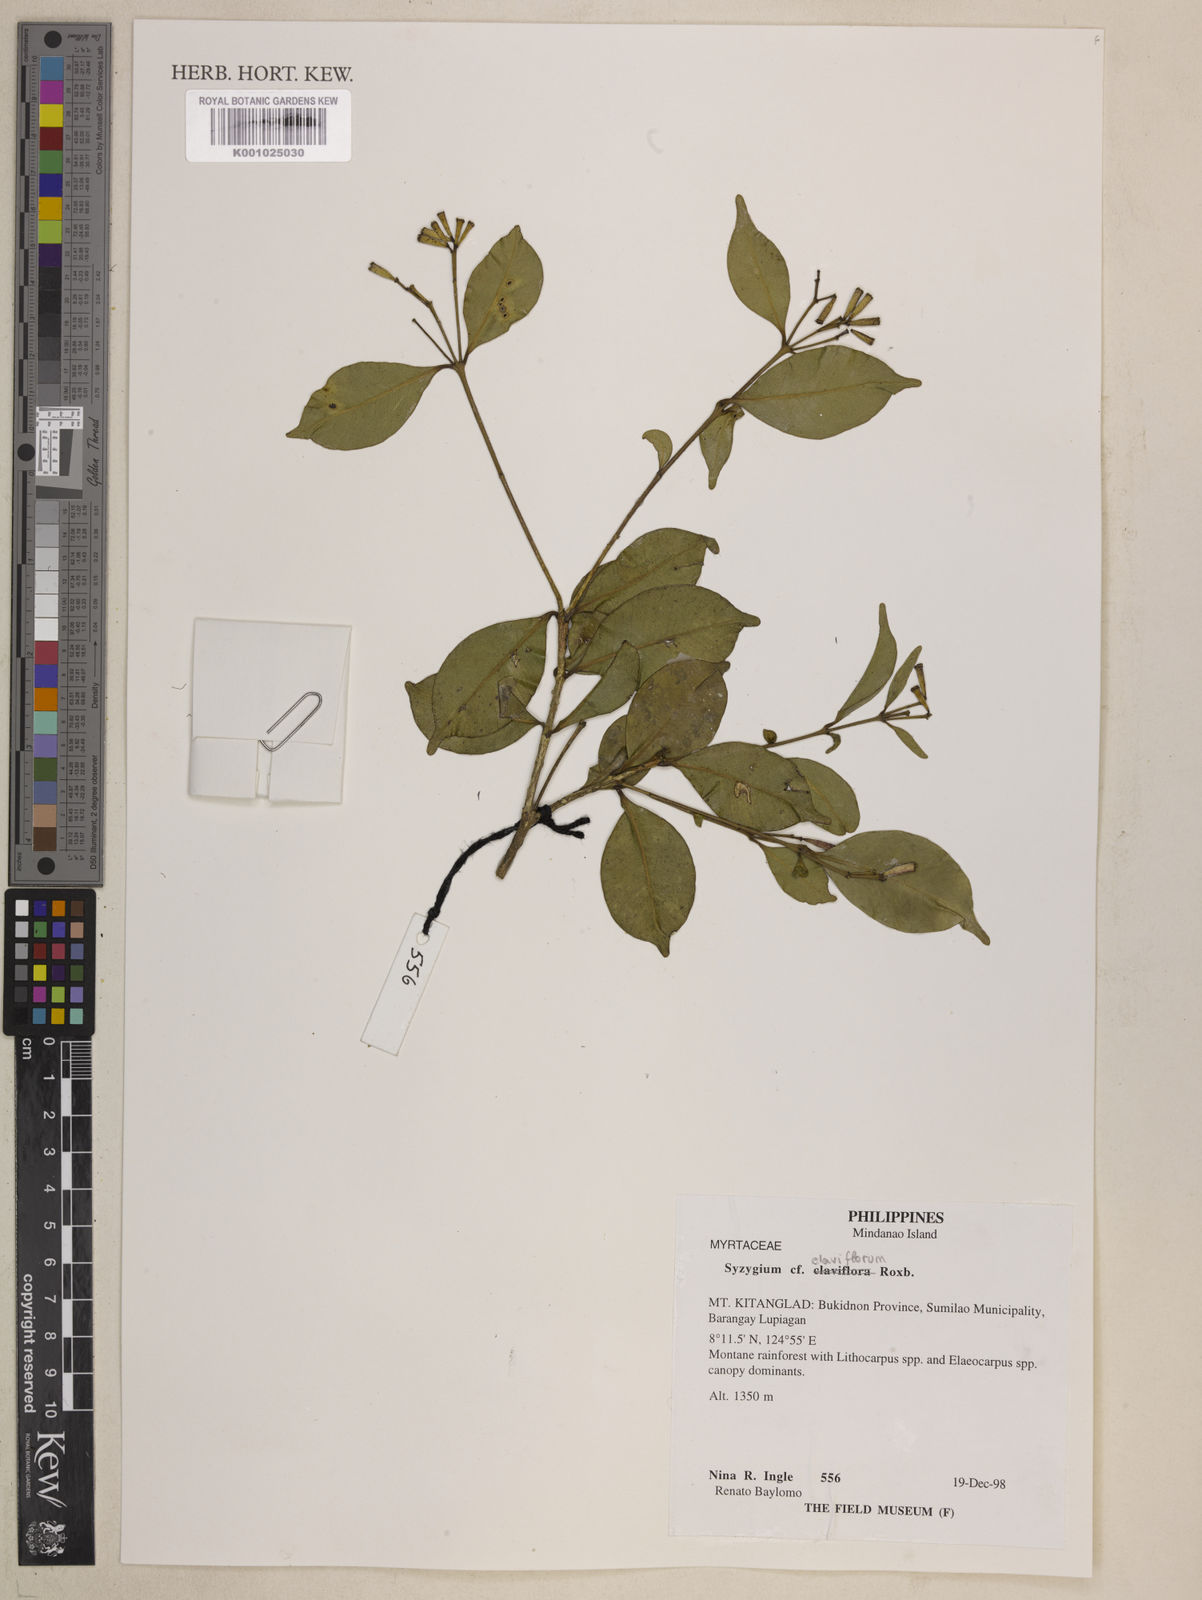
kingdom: Plantae
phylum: Tracheophyta
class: Magnoliopsida
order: Myrtales
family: Myrtaceae
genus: Syzygium
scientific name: Syzygium claviflorum
